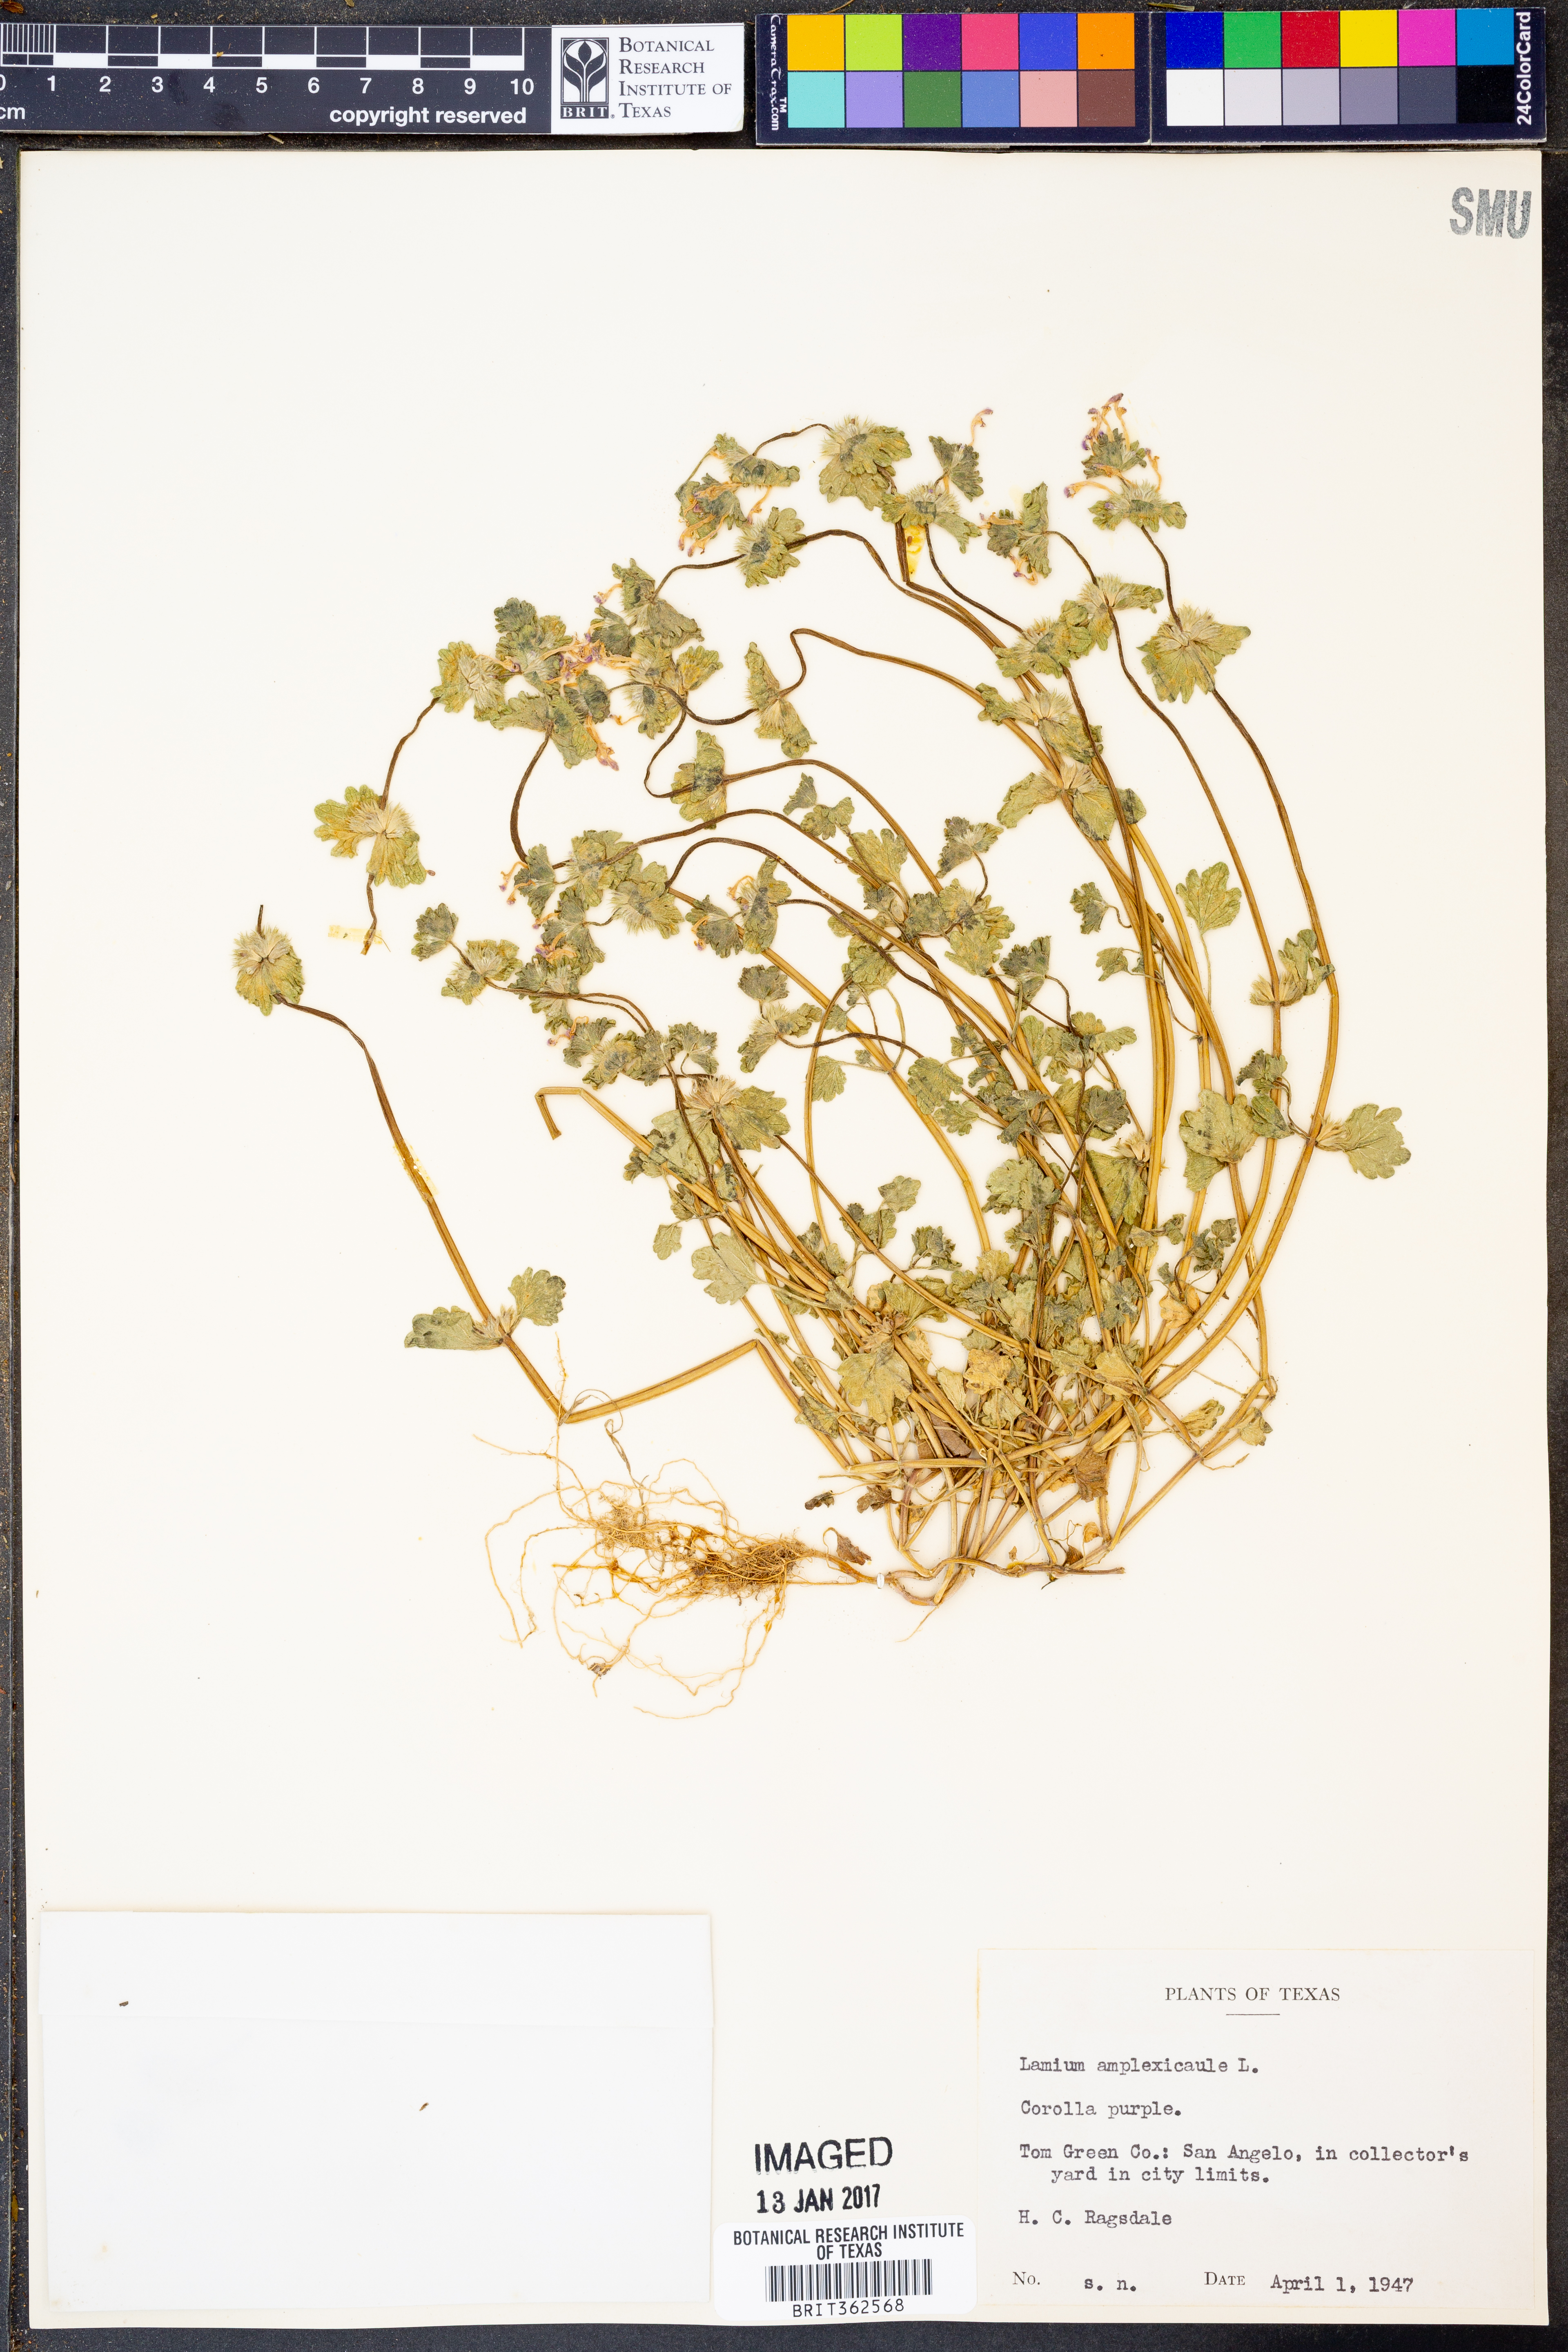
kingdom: Plantae
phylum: Tracheophyta
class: Magnoliopsida
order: Lamiales
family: Lamiaceae
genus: Lamium
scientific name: Lamium amplexicaule
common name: Henbit dead-nettle
